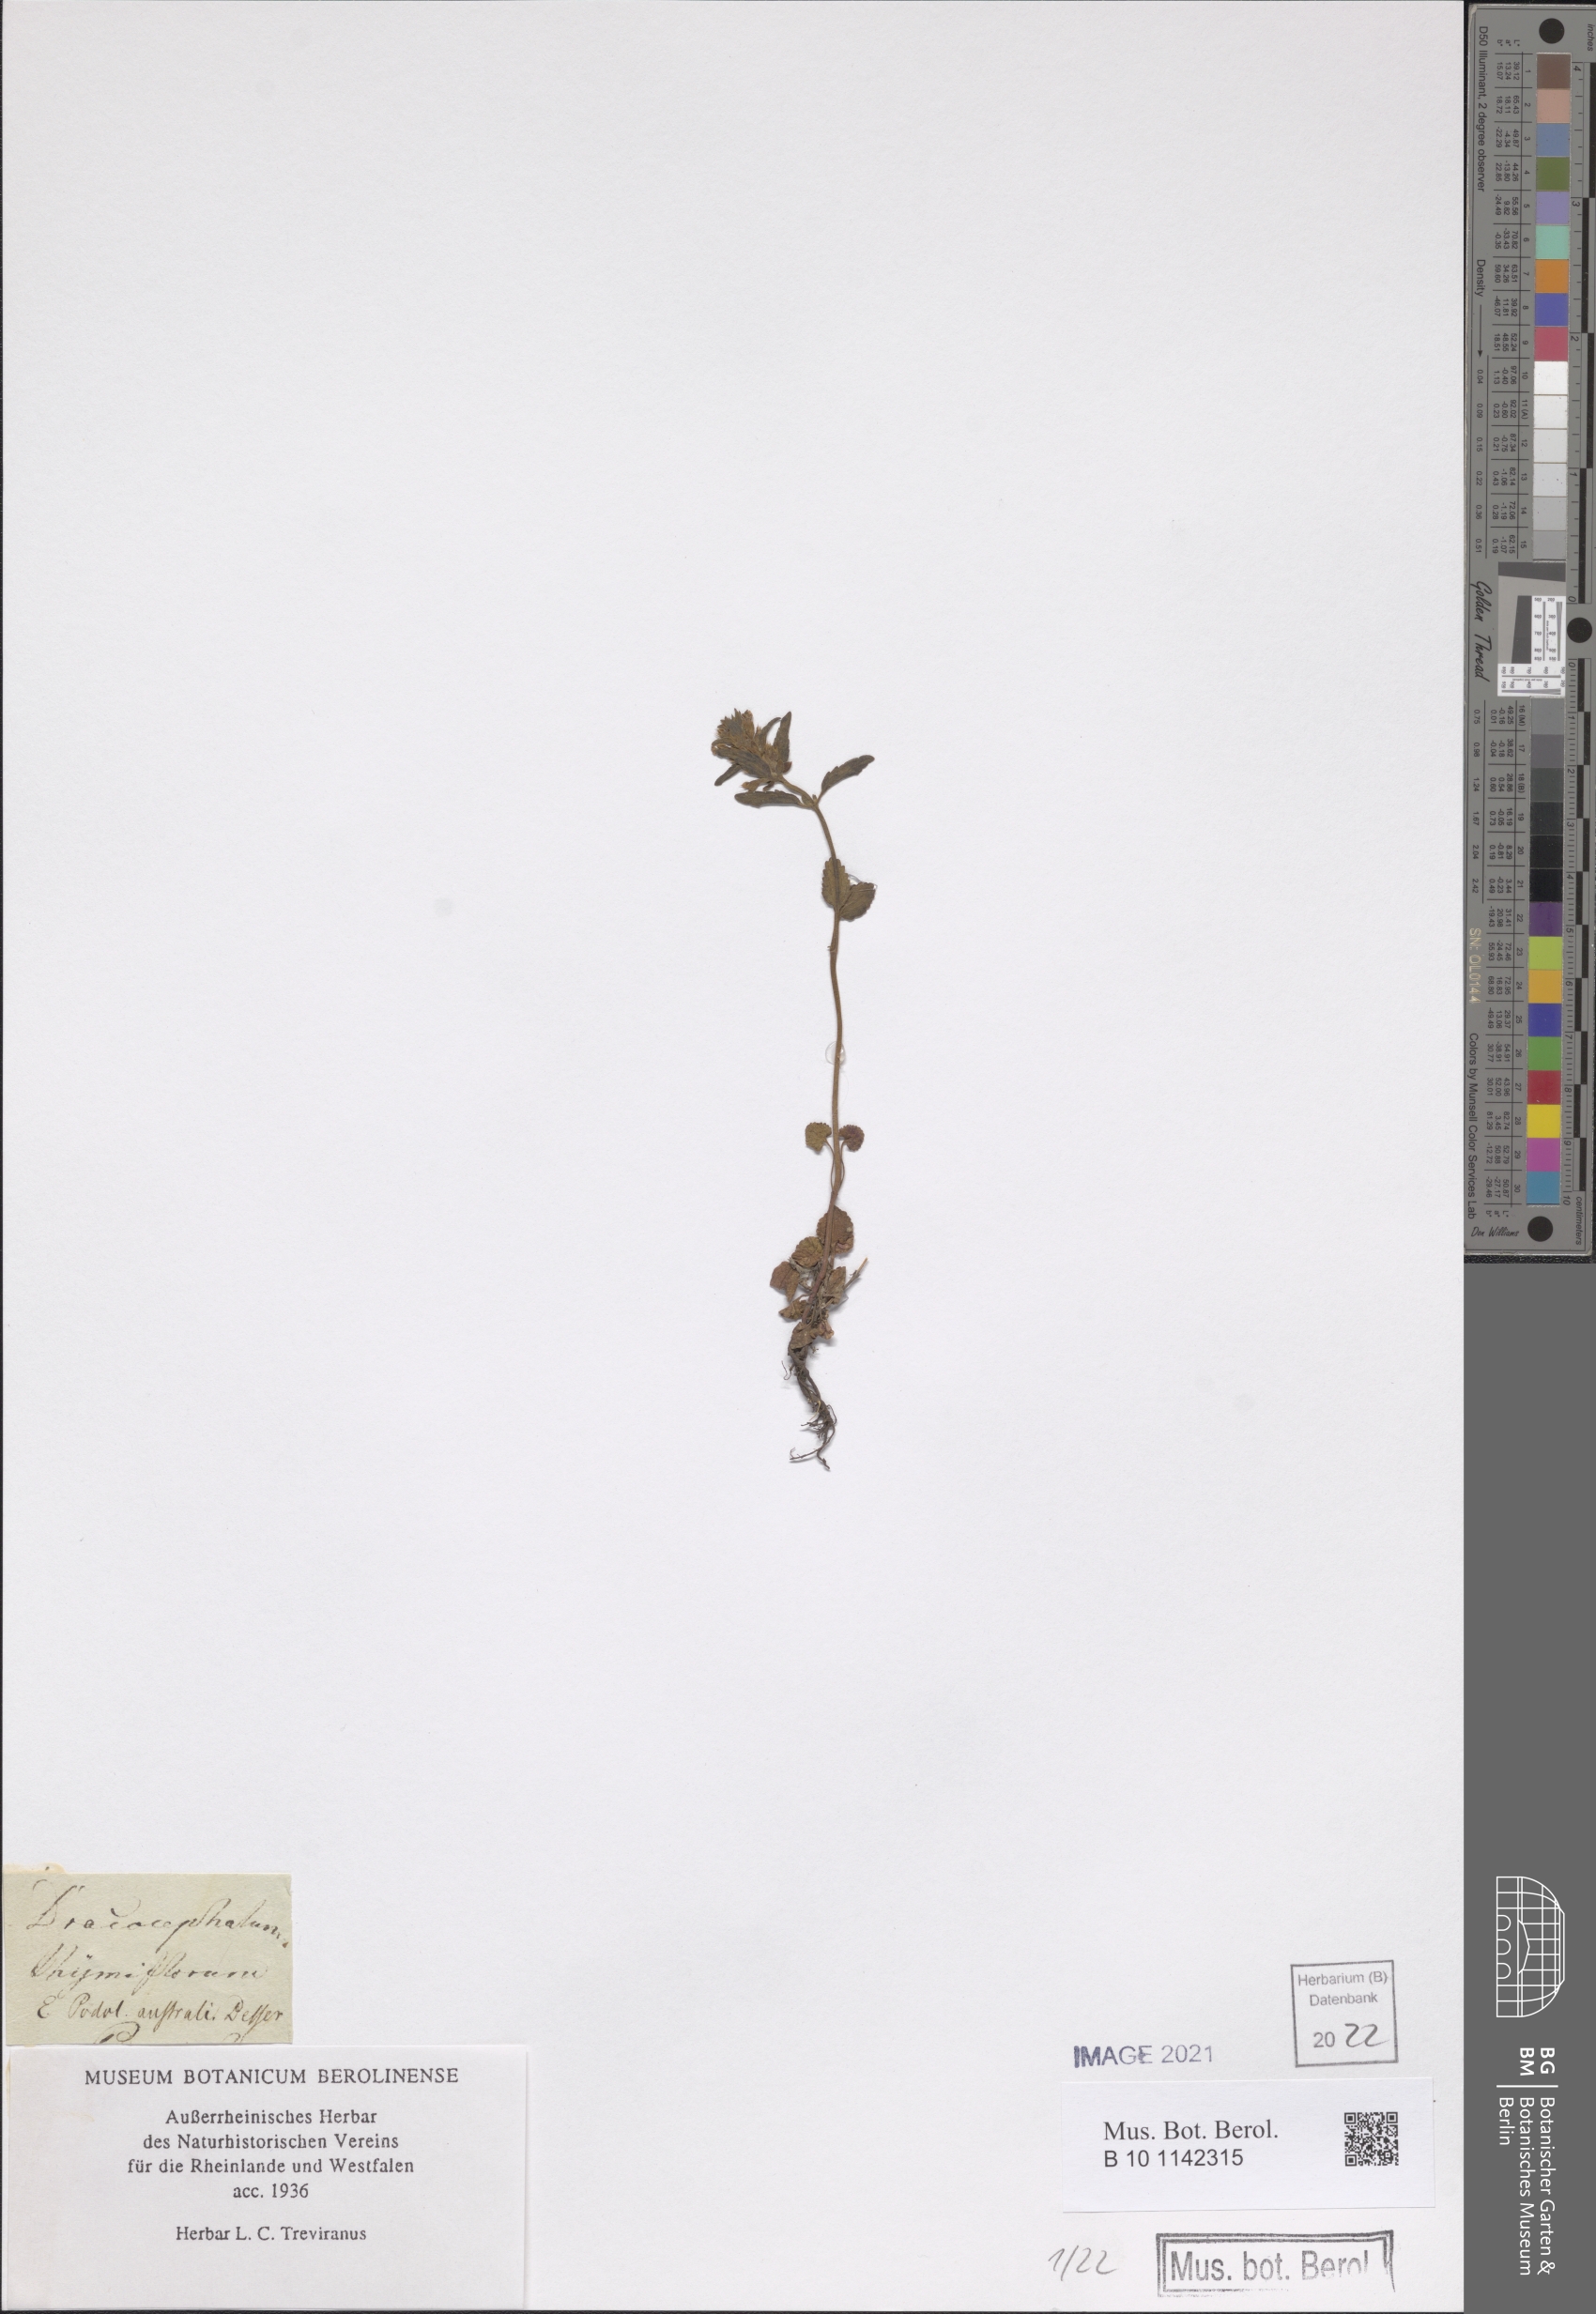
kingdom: Plantae
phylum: Tracheophyta
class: Magnoliopsida
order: Lamiales
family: Lamiaceae
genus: Dracocephalum
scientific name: Dracocephalum thymiflorum
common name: Thymeleaf dragonhead
